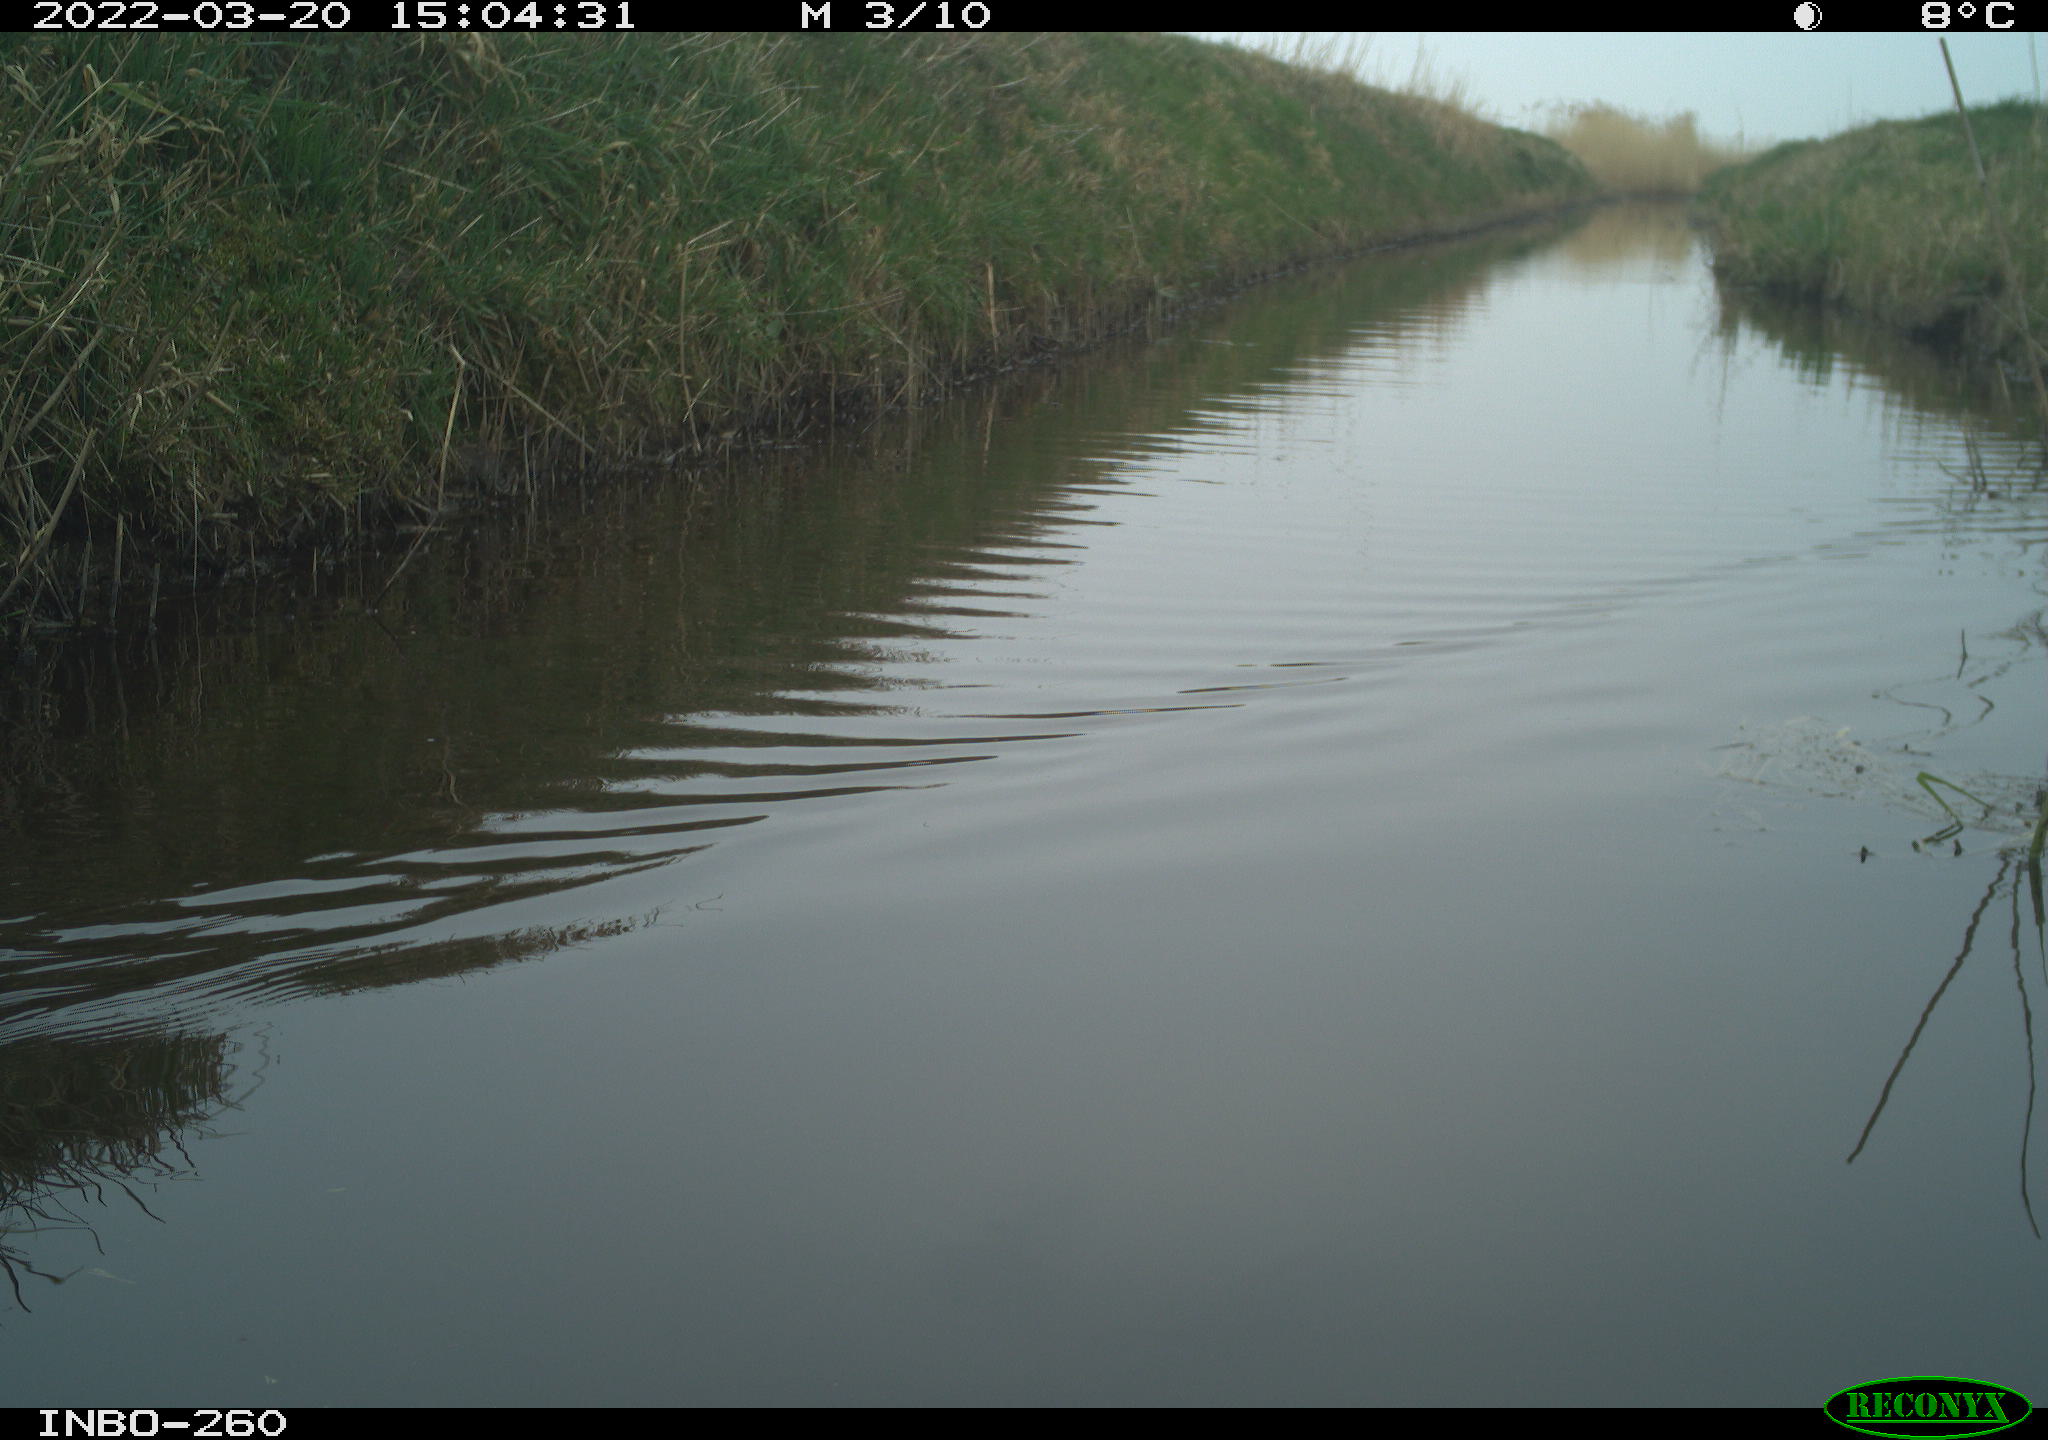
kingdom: Animalia
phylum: Chordata
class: Aves
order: Gruiformes
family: Rallidae
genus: Fulica
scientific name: Fulica atra
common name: Eurasian coot
